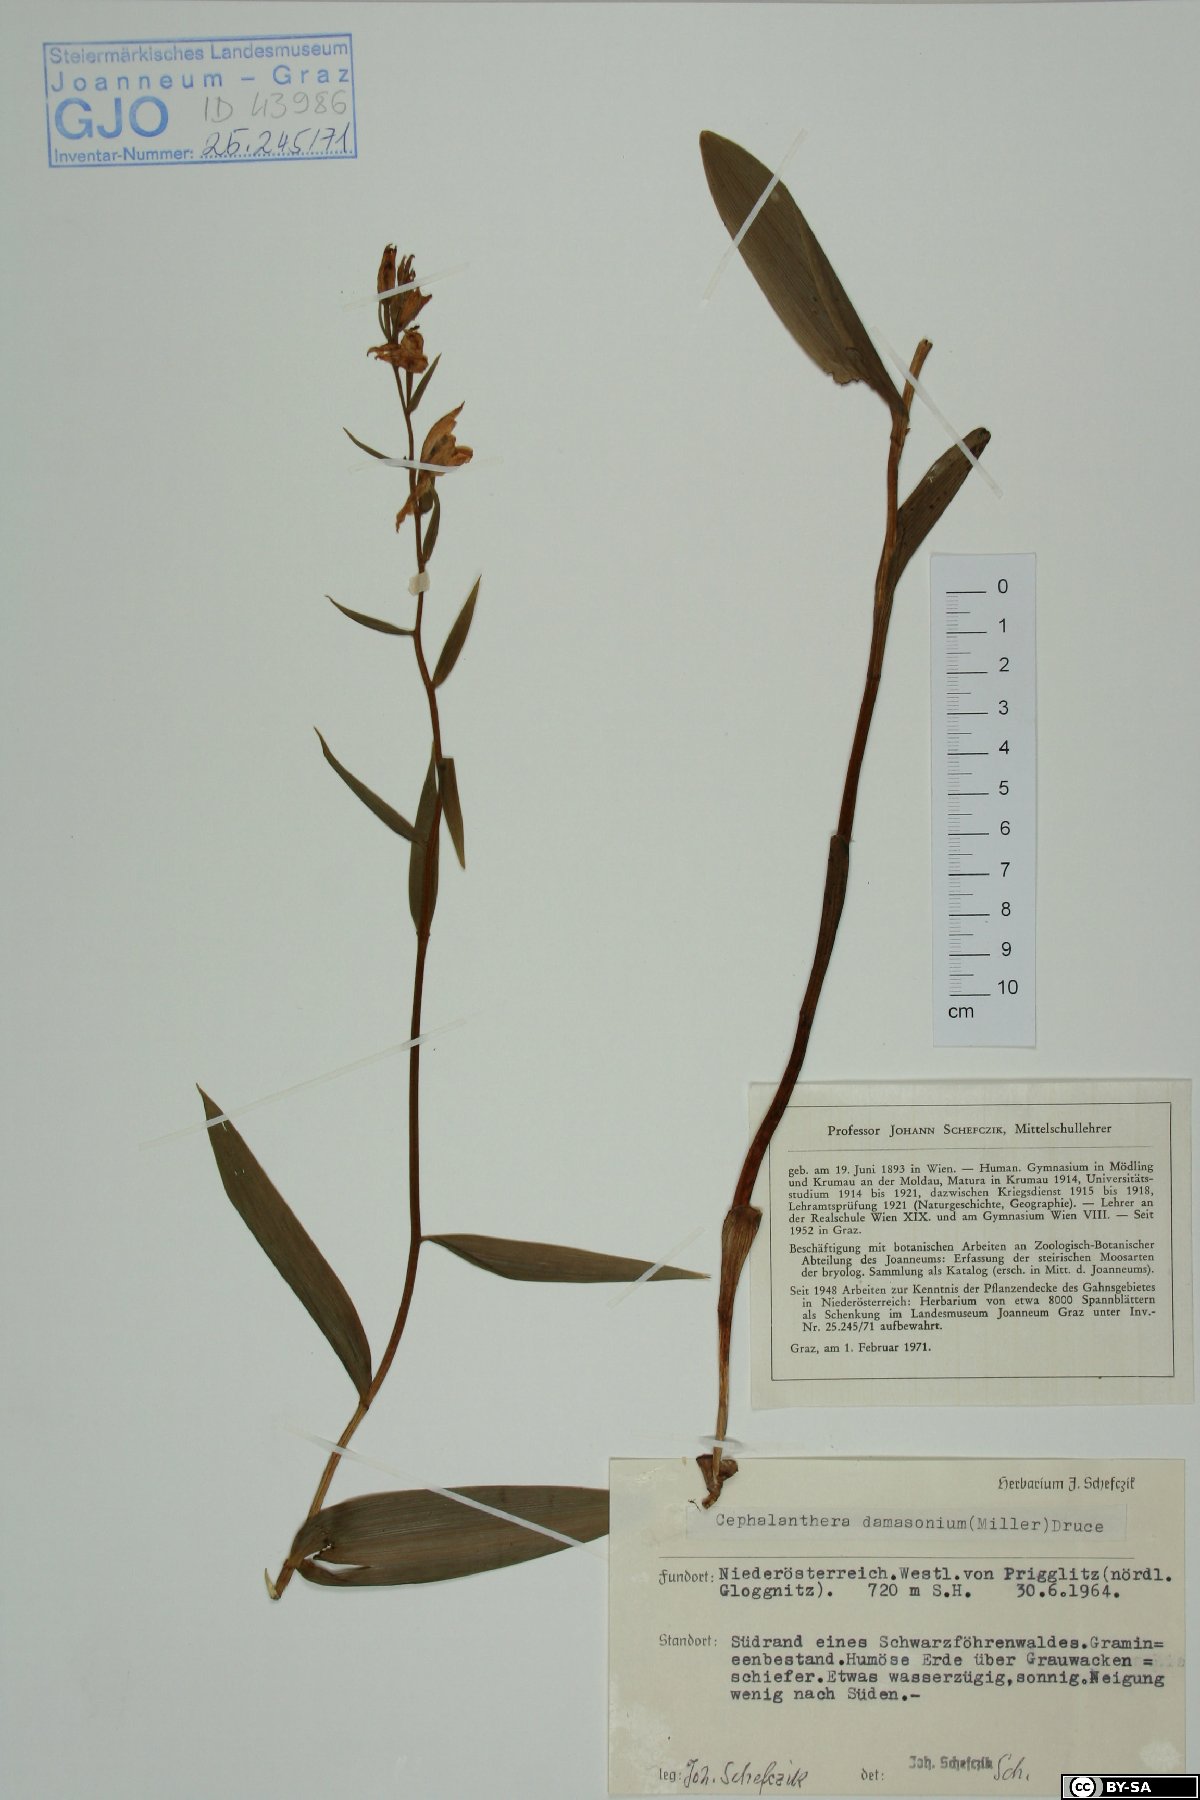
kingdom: Plantae
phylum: Tracheophyta
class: Liliopsida
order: Asparagales
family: Orchidaceae
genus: Cephalanthera
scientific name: Cephalanthera damasonium
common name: White helleborine
